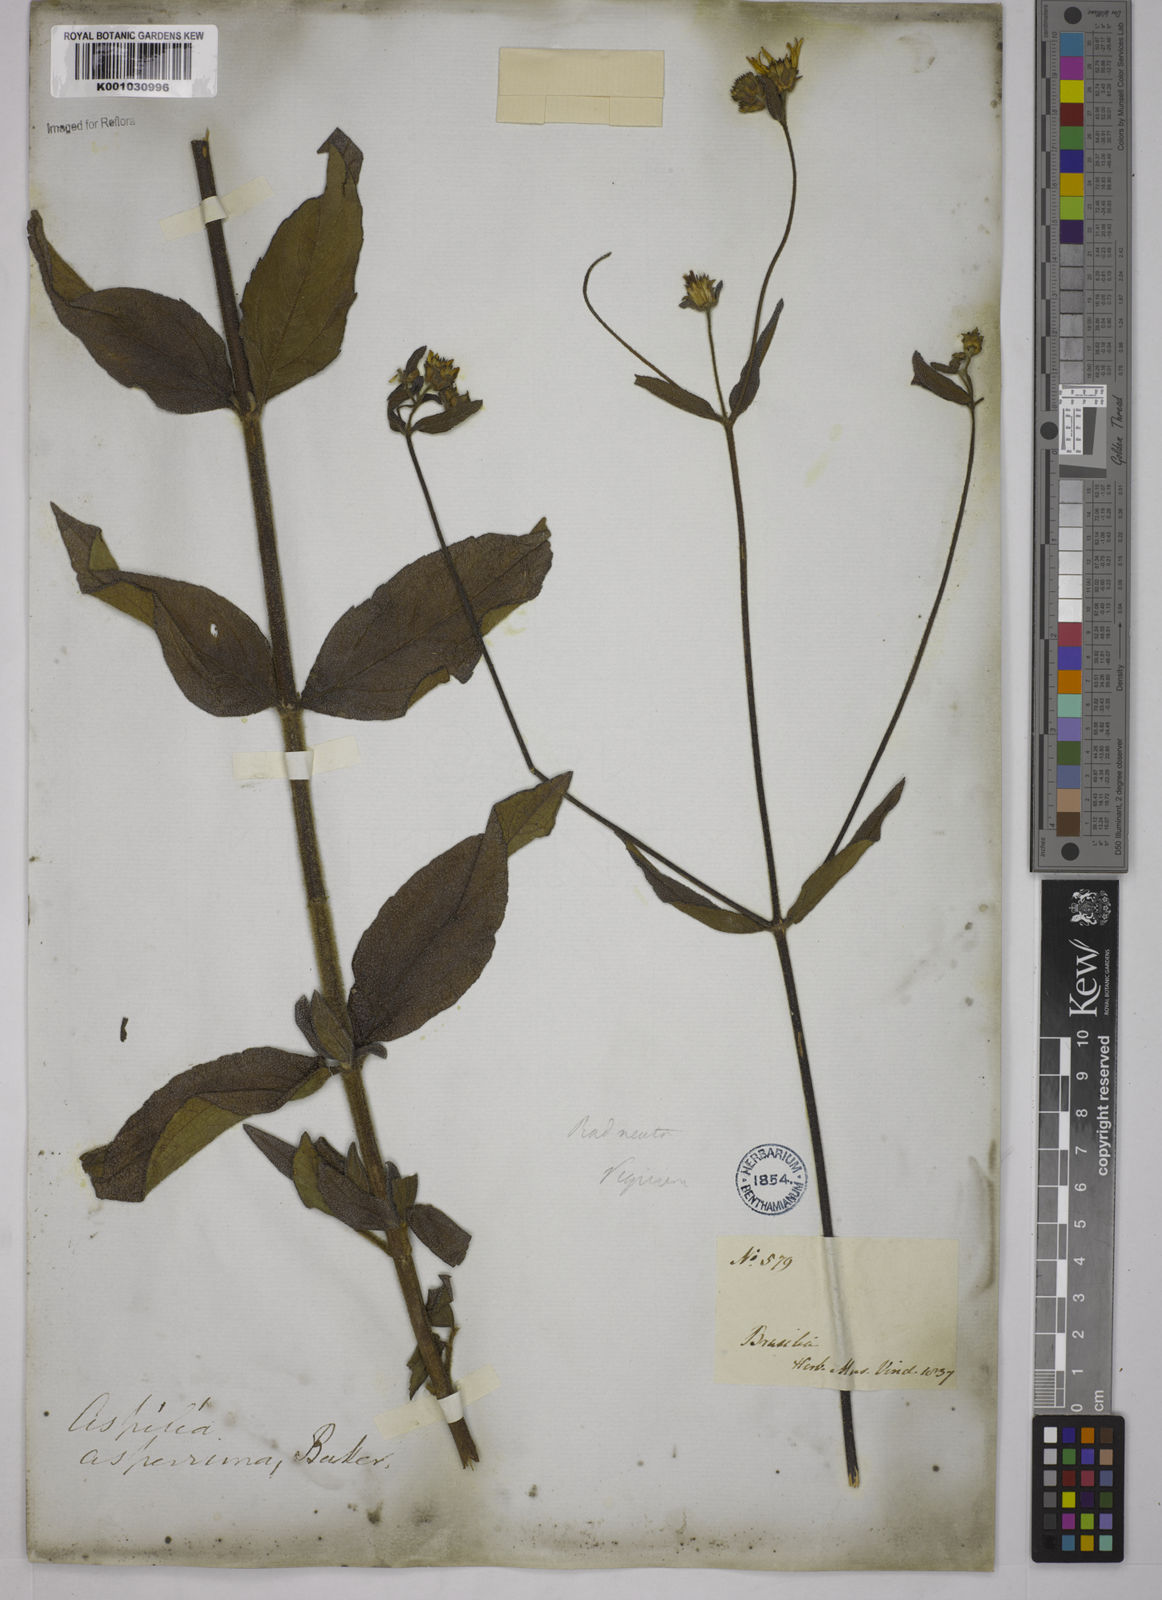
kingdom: Plantae
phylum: Tracheophyta
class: Magnoliopsida
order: Asterales
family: Asteraceae
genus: Wedelia
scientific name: Wedelia gardneri
